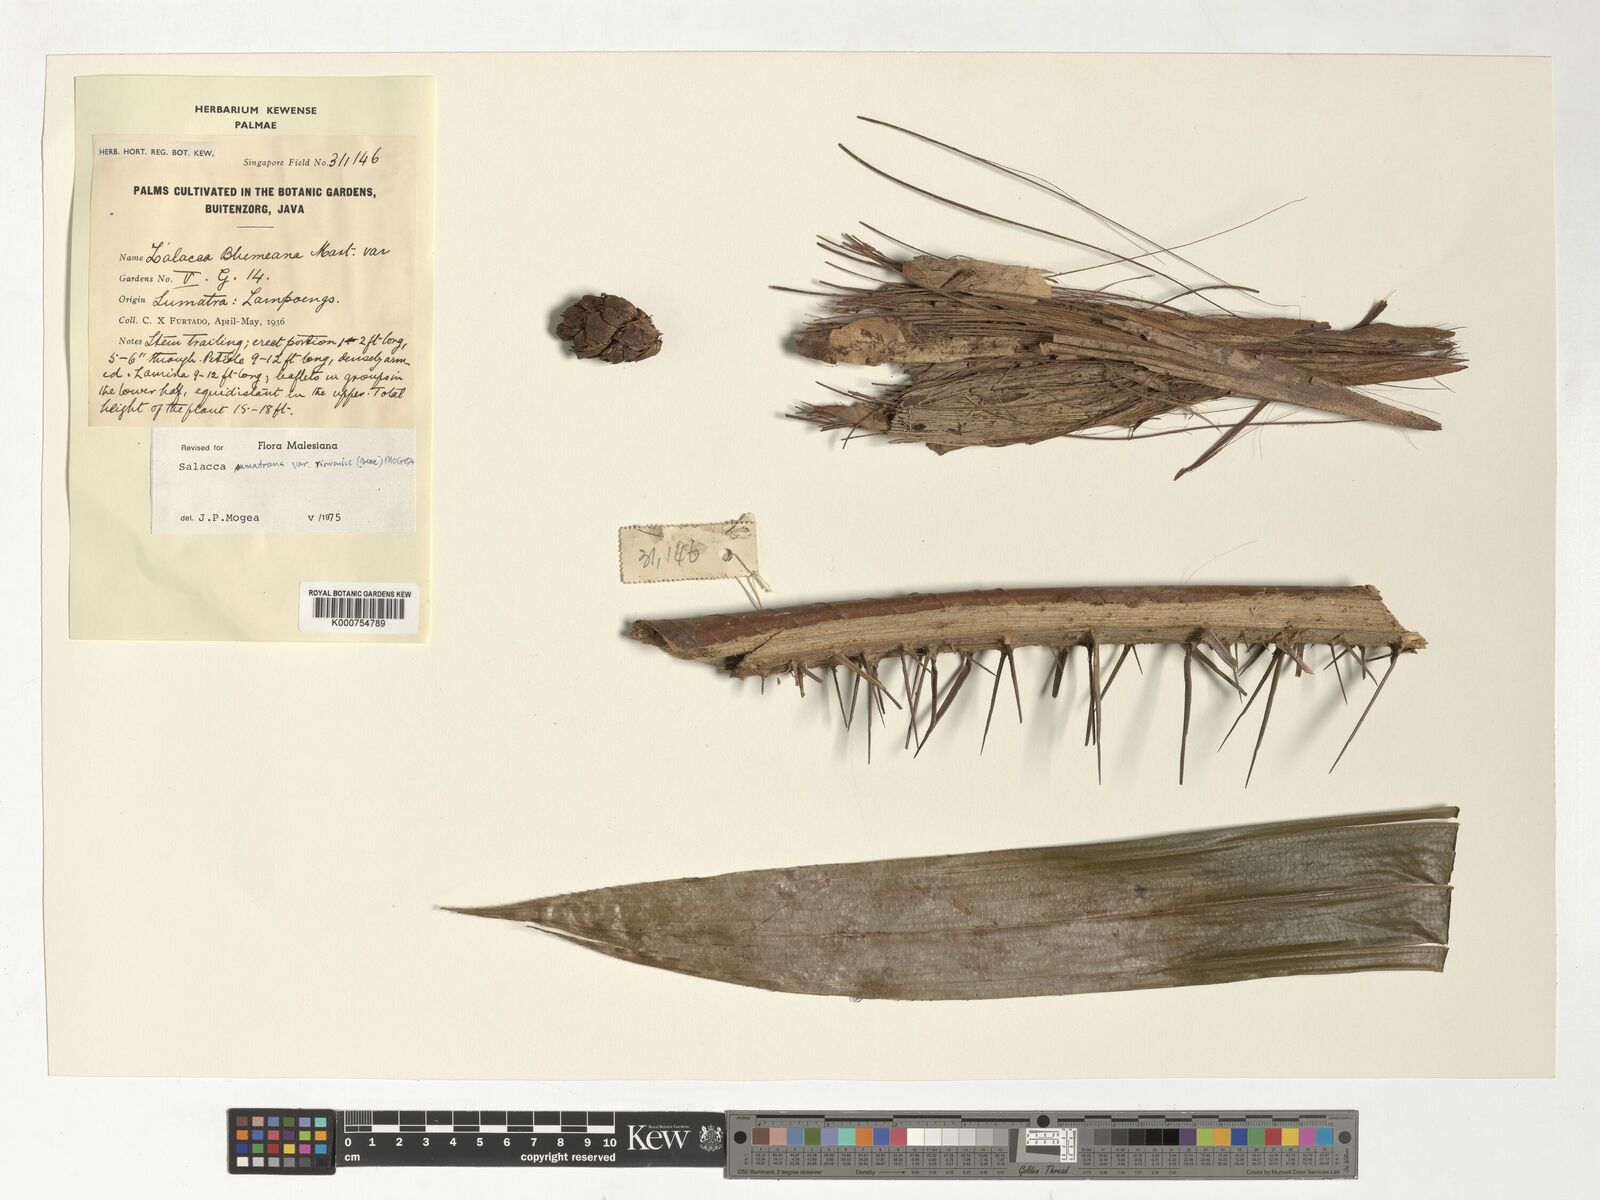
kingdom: Plantae
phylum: Tracheophyta
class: Liliopsida
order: Arecales
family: Arecaceae
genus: Salacca
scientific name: Salacca sumatrana
